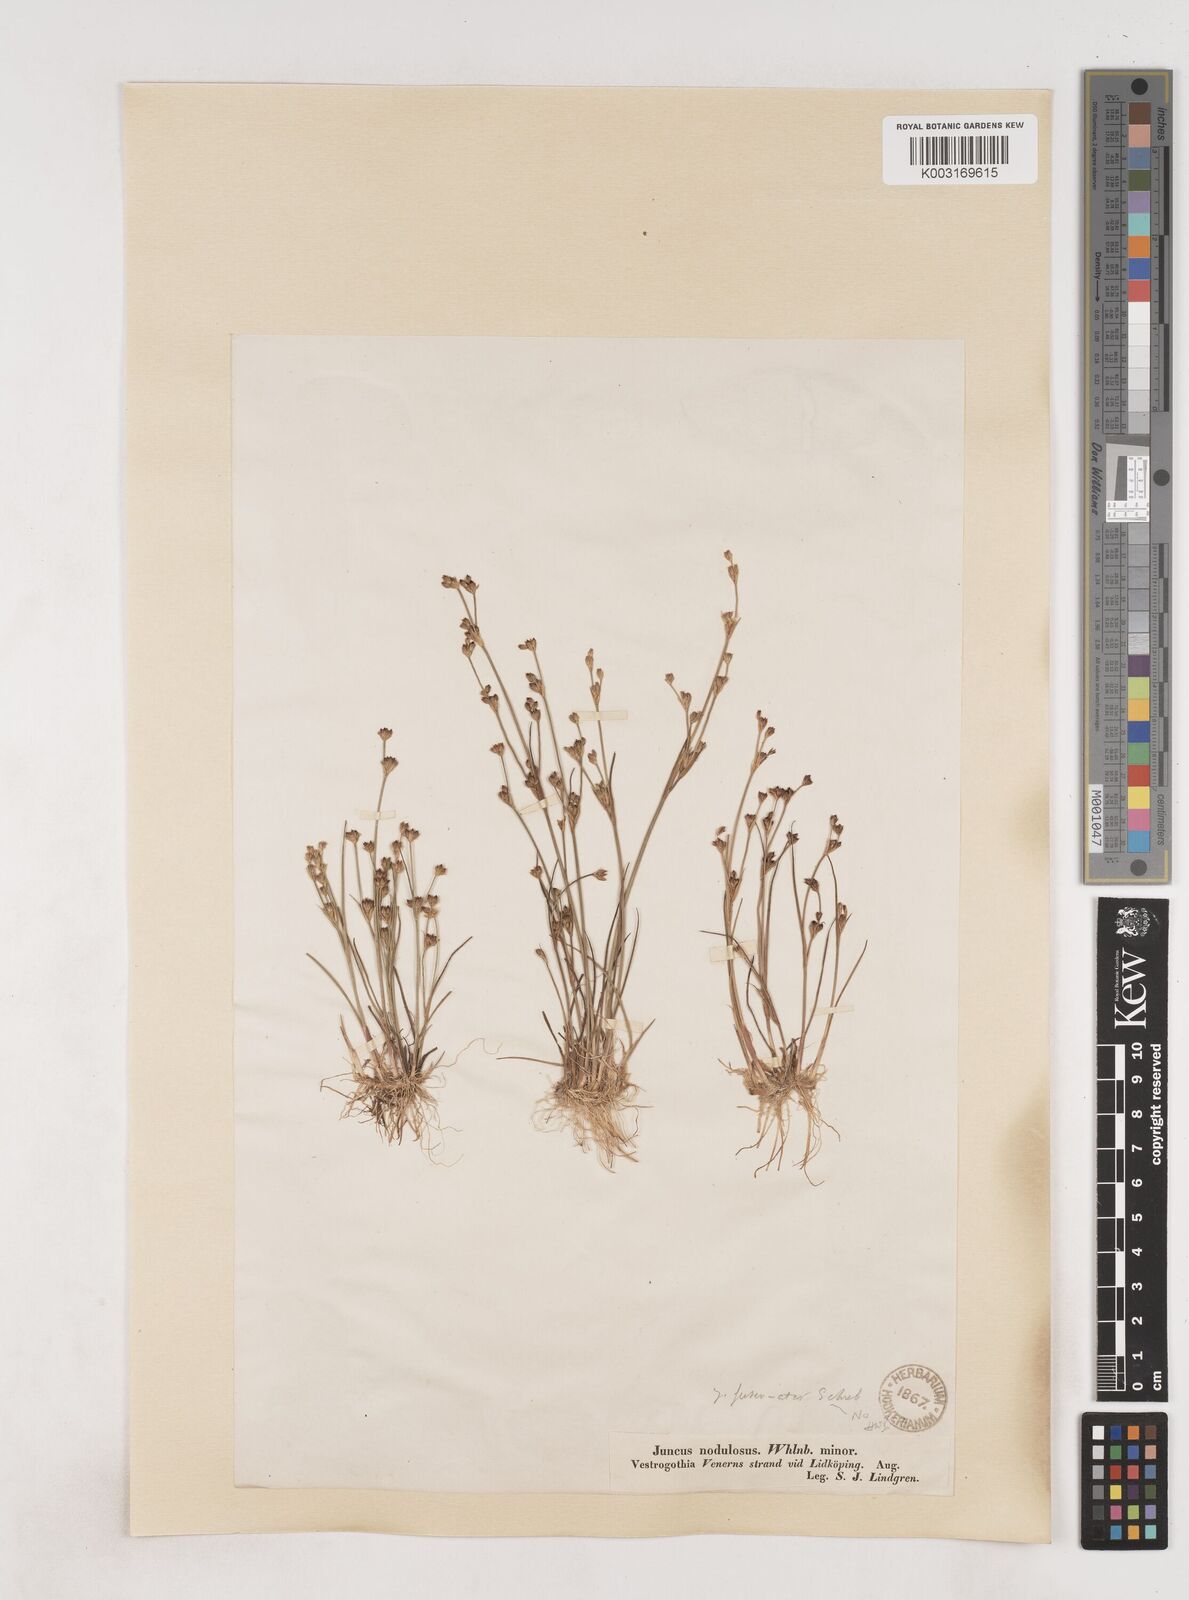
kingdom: Plantae
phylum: Tracheophyta
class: Liliopsida
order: Poales
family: Juncaceae
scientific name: Juncaceae
